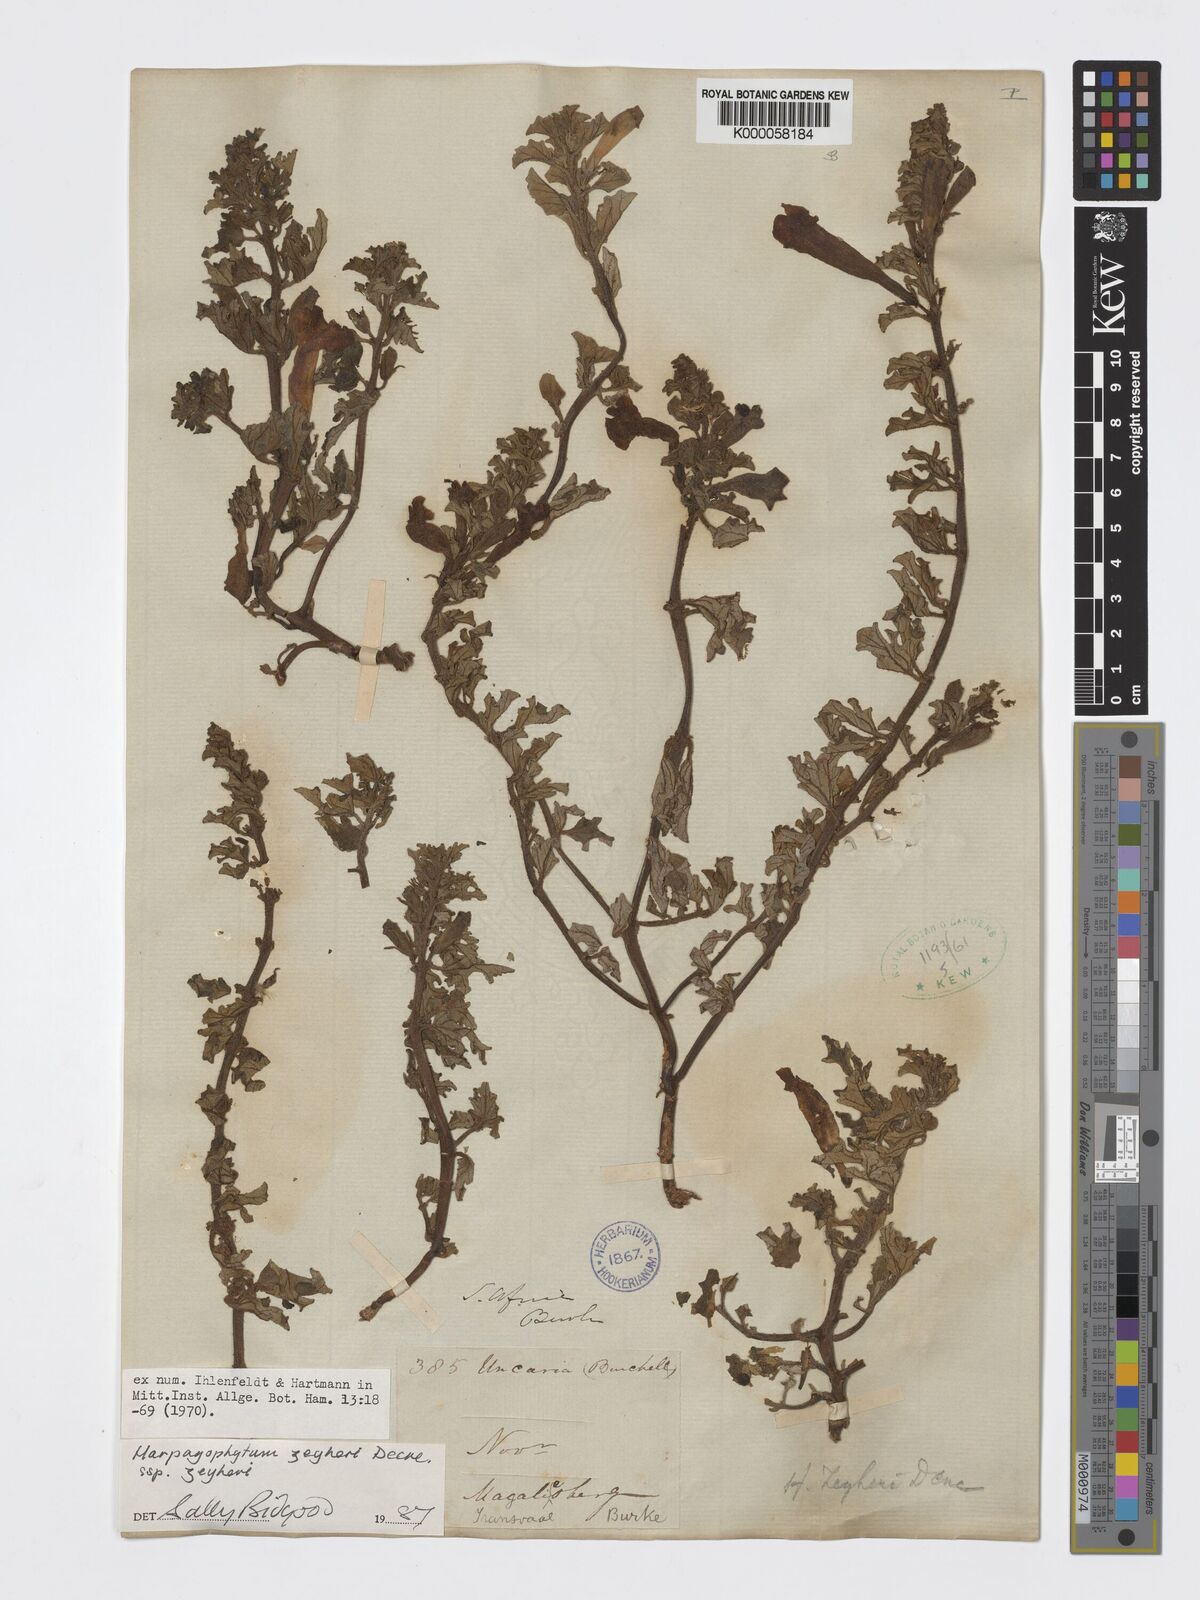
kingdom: Plantae
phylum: Tracheophyta
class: Magnoliopsida
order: Lamiales
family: Pedaliaceae
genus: Harpagophytum
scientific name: Harpagophytum zeyheri
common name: Grappleplant
